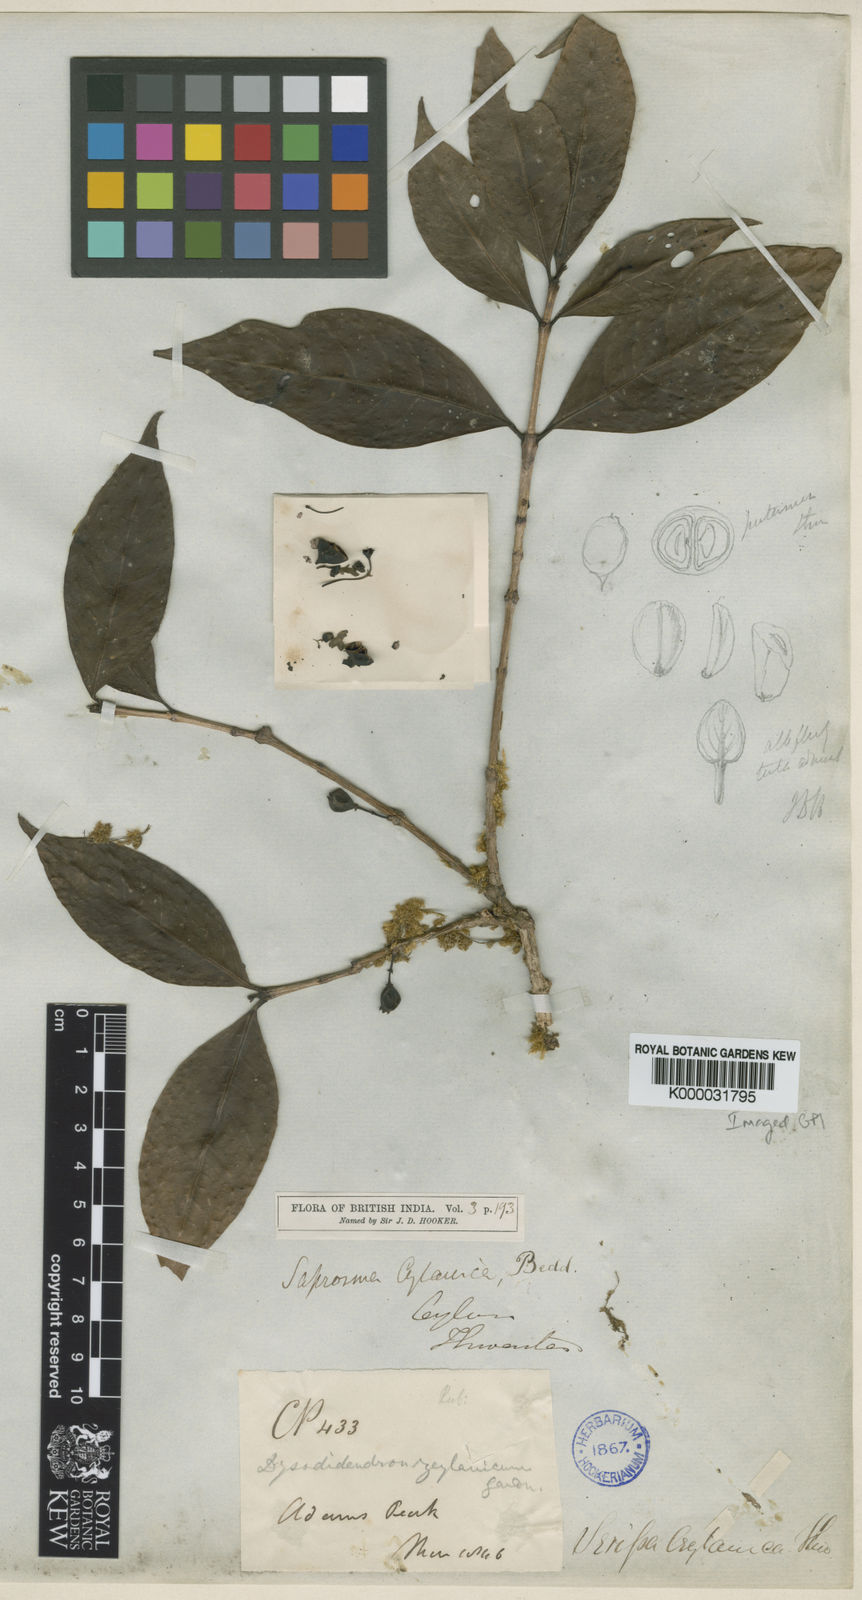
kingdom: Plantae
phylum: Tracheophyta
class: Magnoliopsida
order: Gentianales
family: Rubiaceae
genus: Saprosma
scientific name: Saprosma foetens
